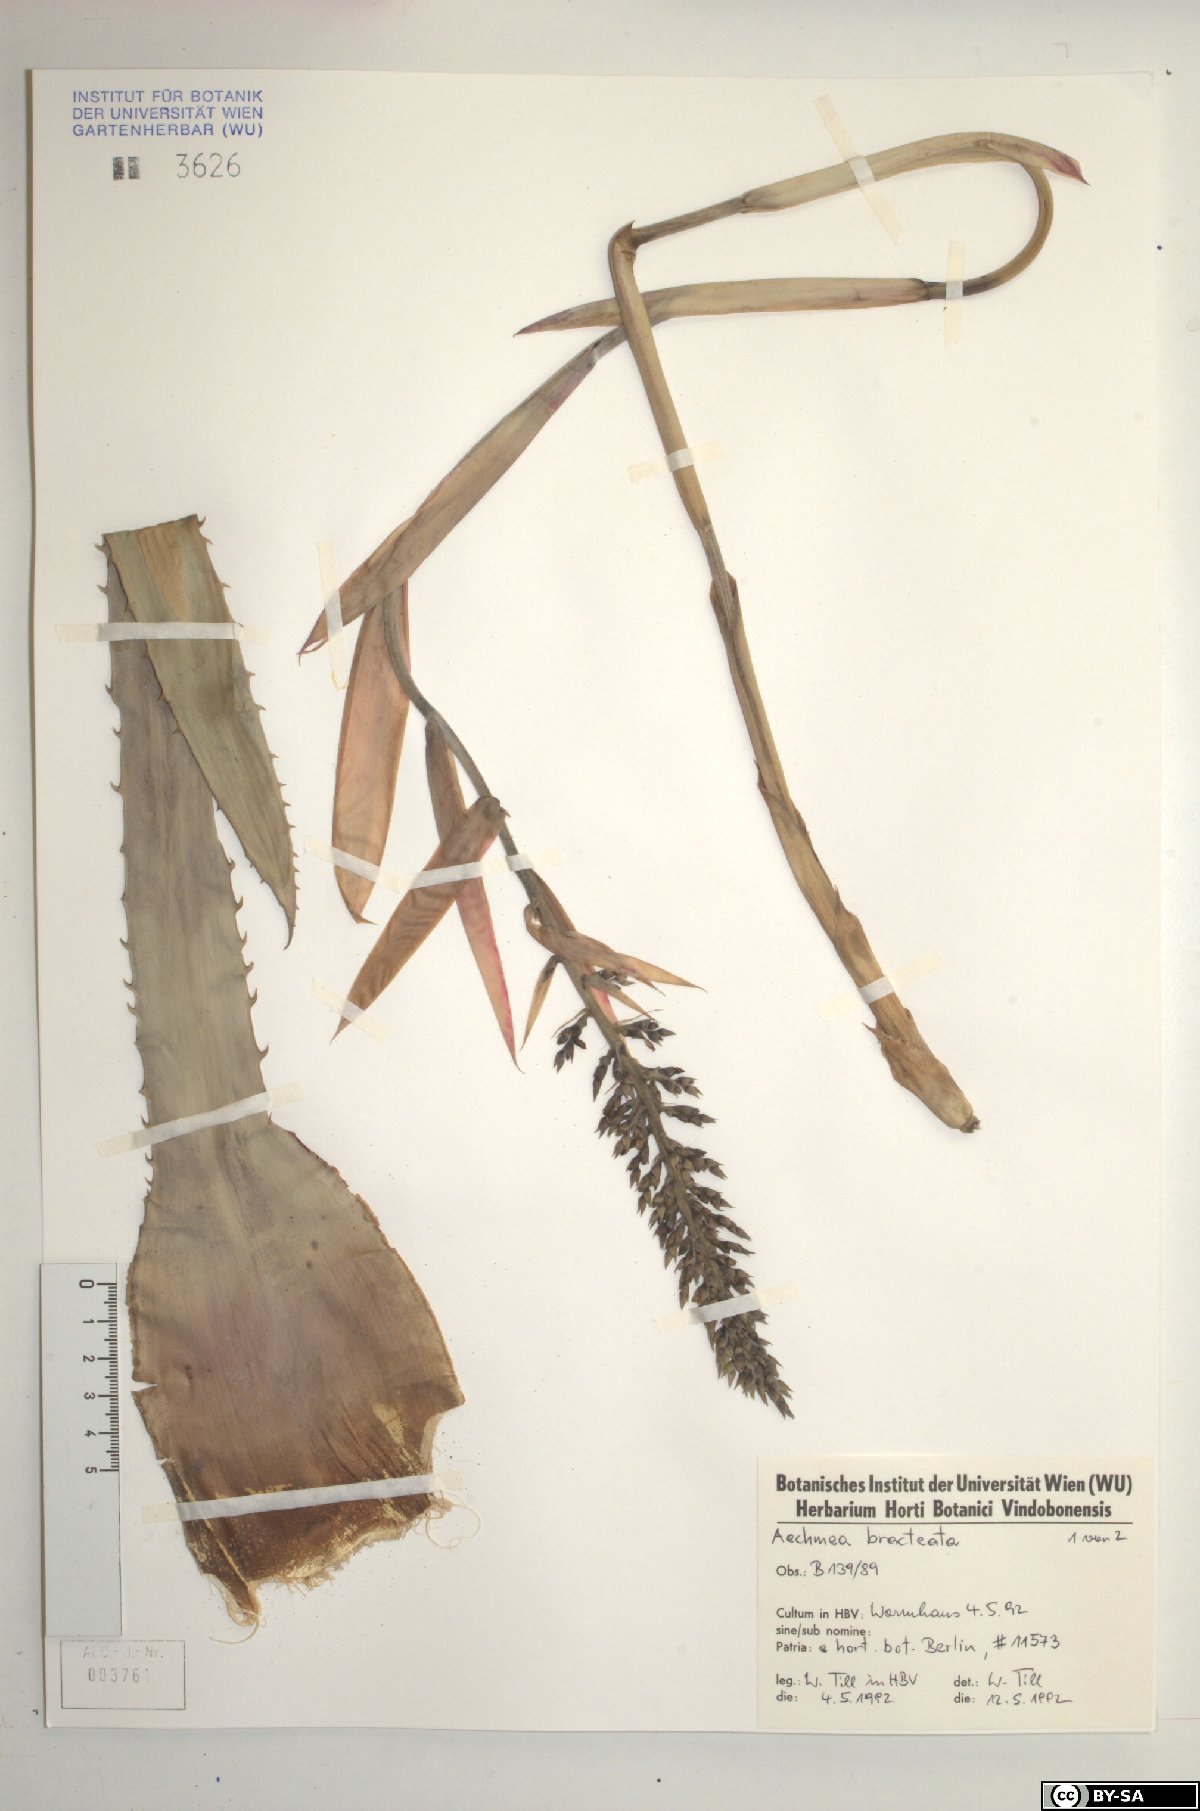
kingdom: Plantae
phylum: Tracheophyta
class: Liliopsida
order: Poales
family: Bromeliaceae
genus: Aechmea
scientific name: Aechmea bracteata
